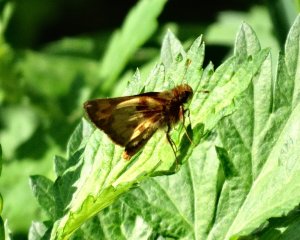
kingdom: Animalia
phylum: Arthropoda
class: Insecta
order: Lepidoptera
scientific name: Lepidoptera
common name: Butterflies
